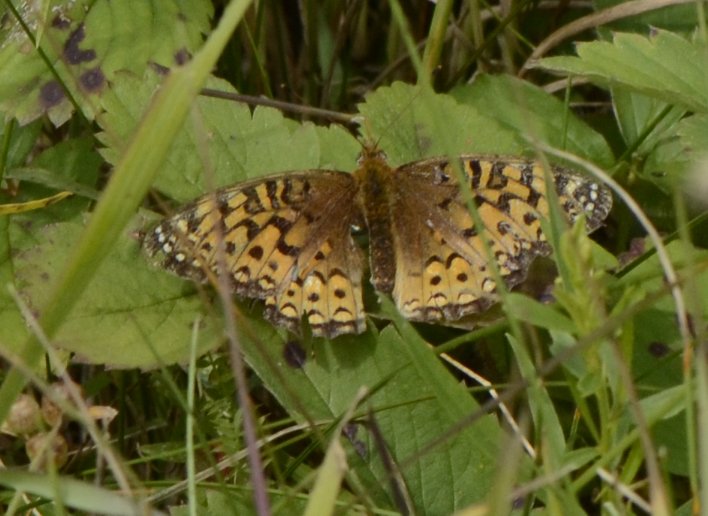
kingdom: Animalia
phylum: Arthropoda
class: Insecta
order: Lepidoptera
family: Nymphalidae
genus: Speyeria
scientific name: Speyeria atlantis
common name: Atlantis Fritillary
